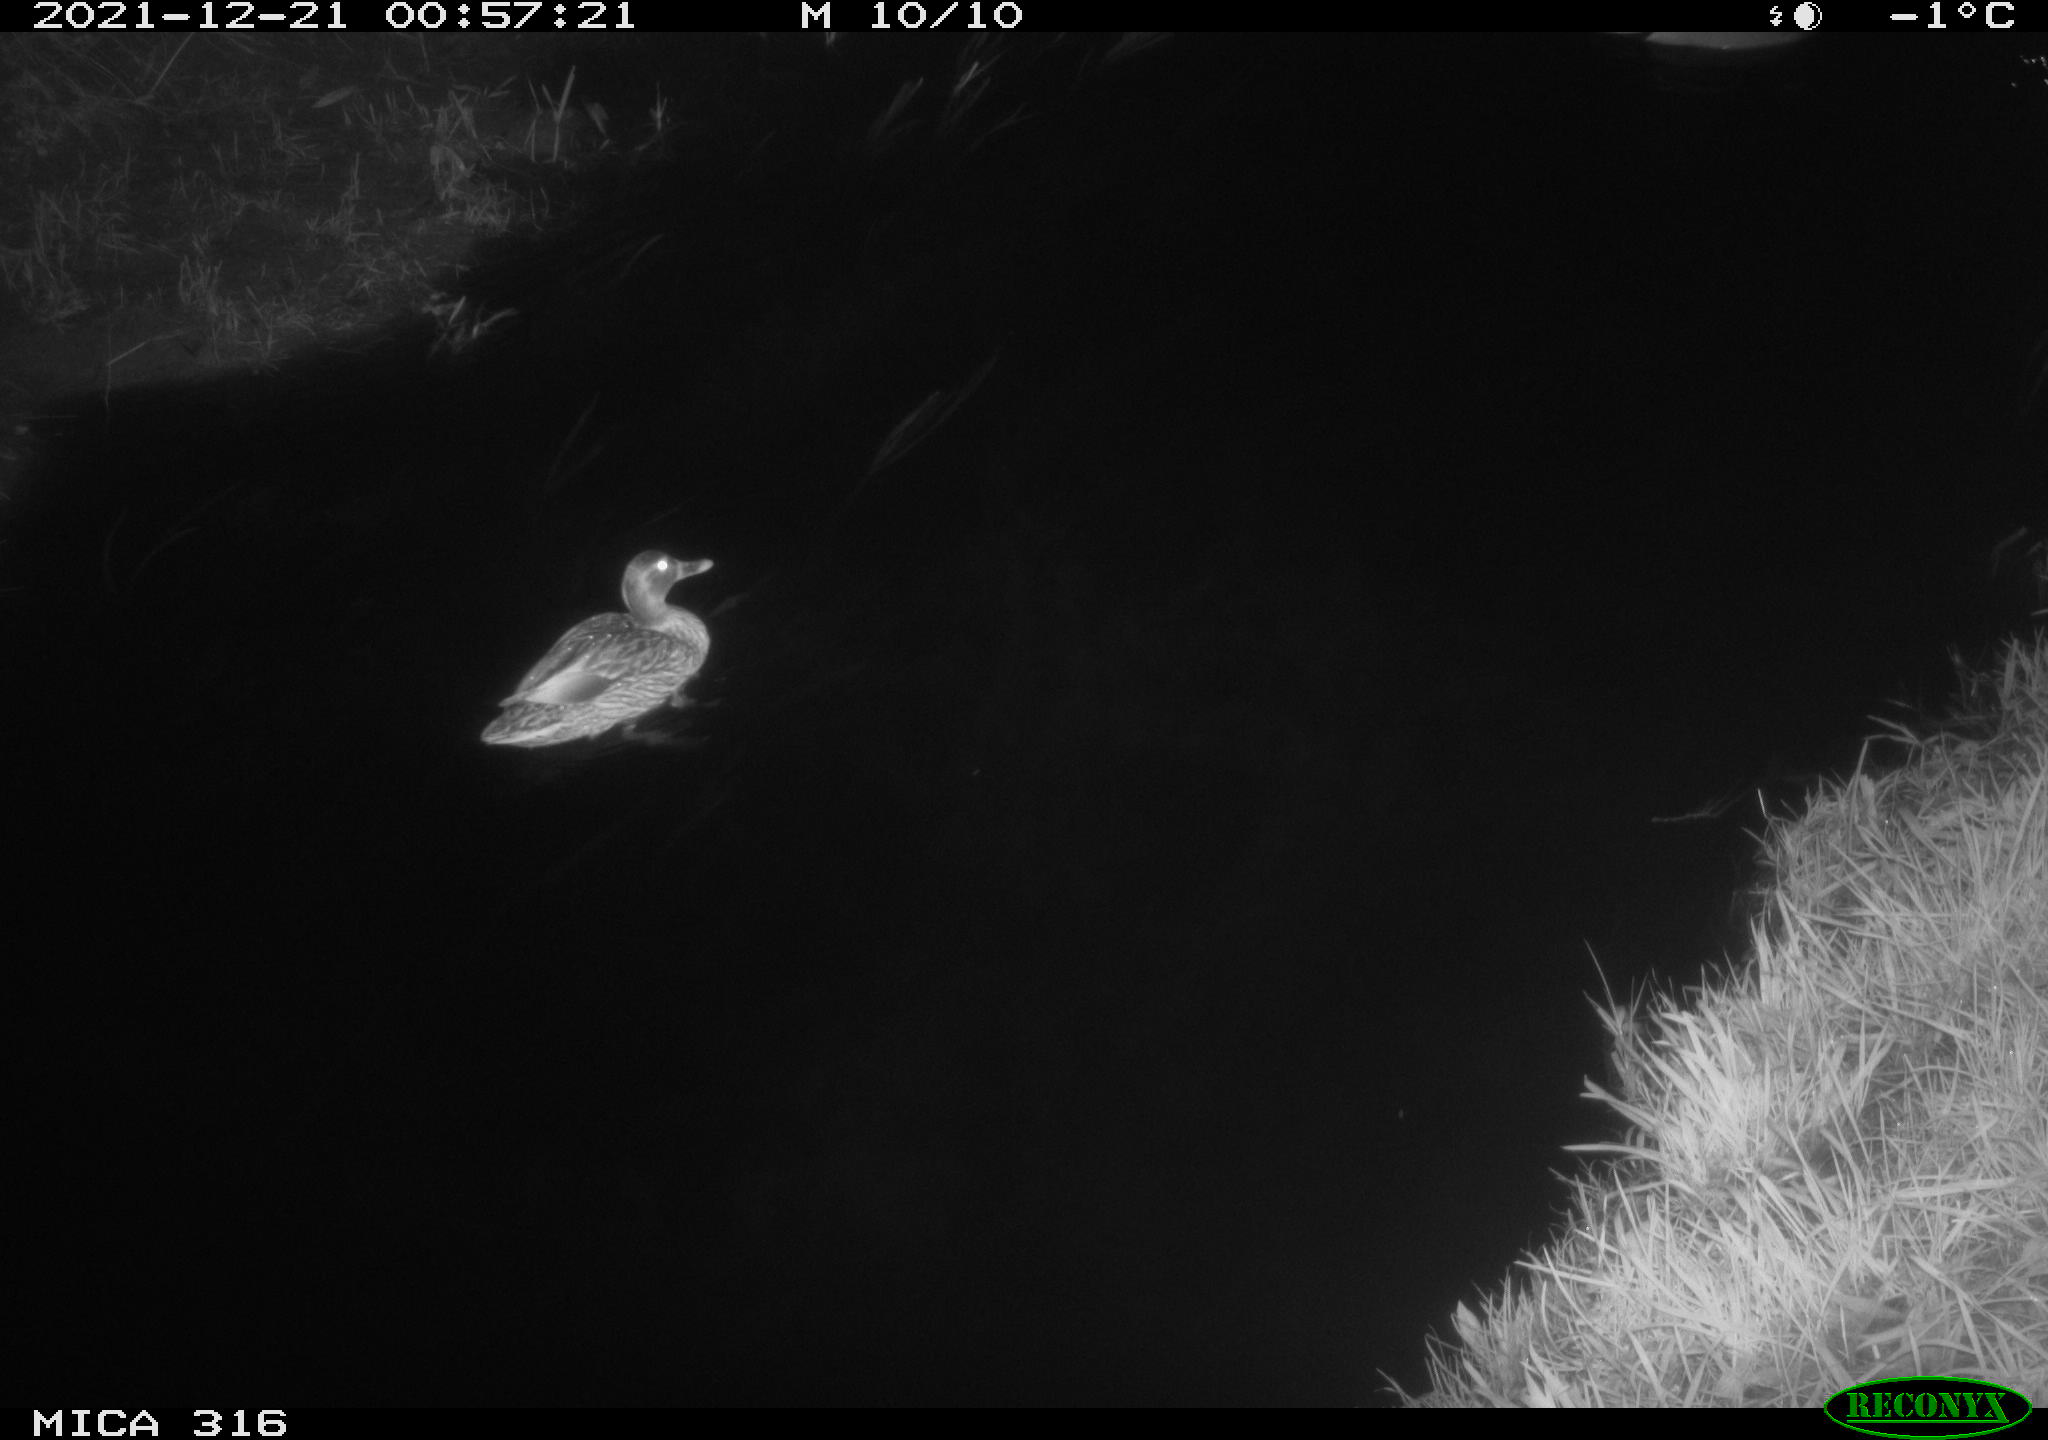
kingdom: Animalia
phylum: Chordata
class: Aves
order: Anseriformes
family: Anatidae
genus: Anas
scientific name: Anas
